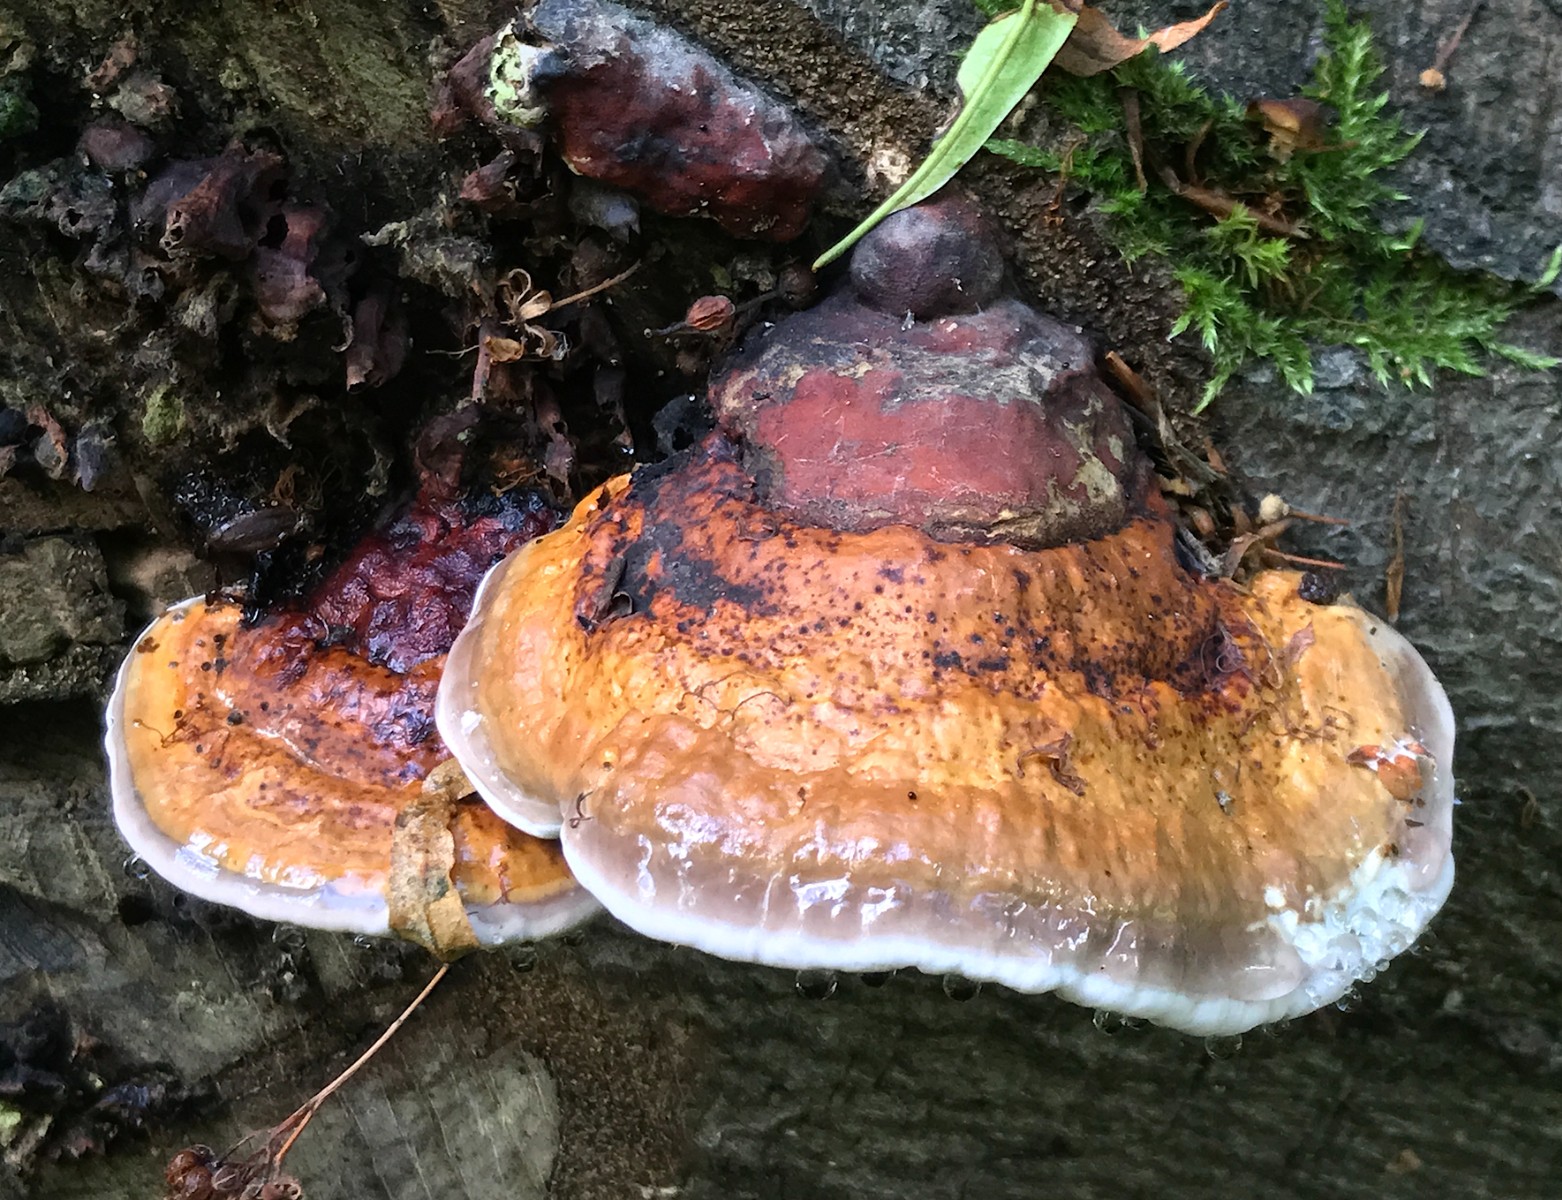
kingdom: Fungi
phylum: Basidiomycota
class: Agaricomycetes
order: Polyporales
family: Fomitopsidaceae
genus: Fomitopsis
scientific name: Fomitopsis pinicola
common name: randbæltet hovporesvamp
